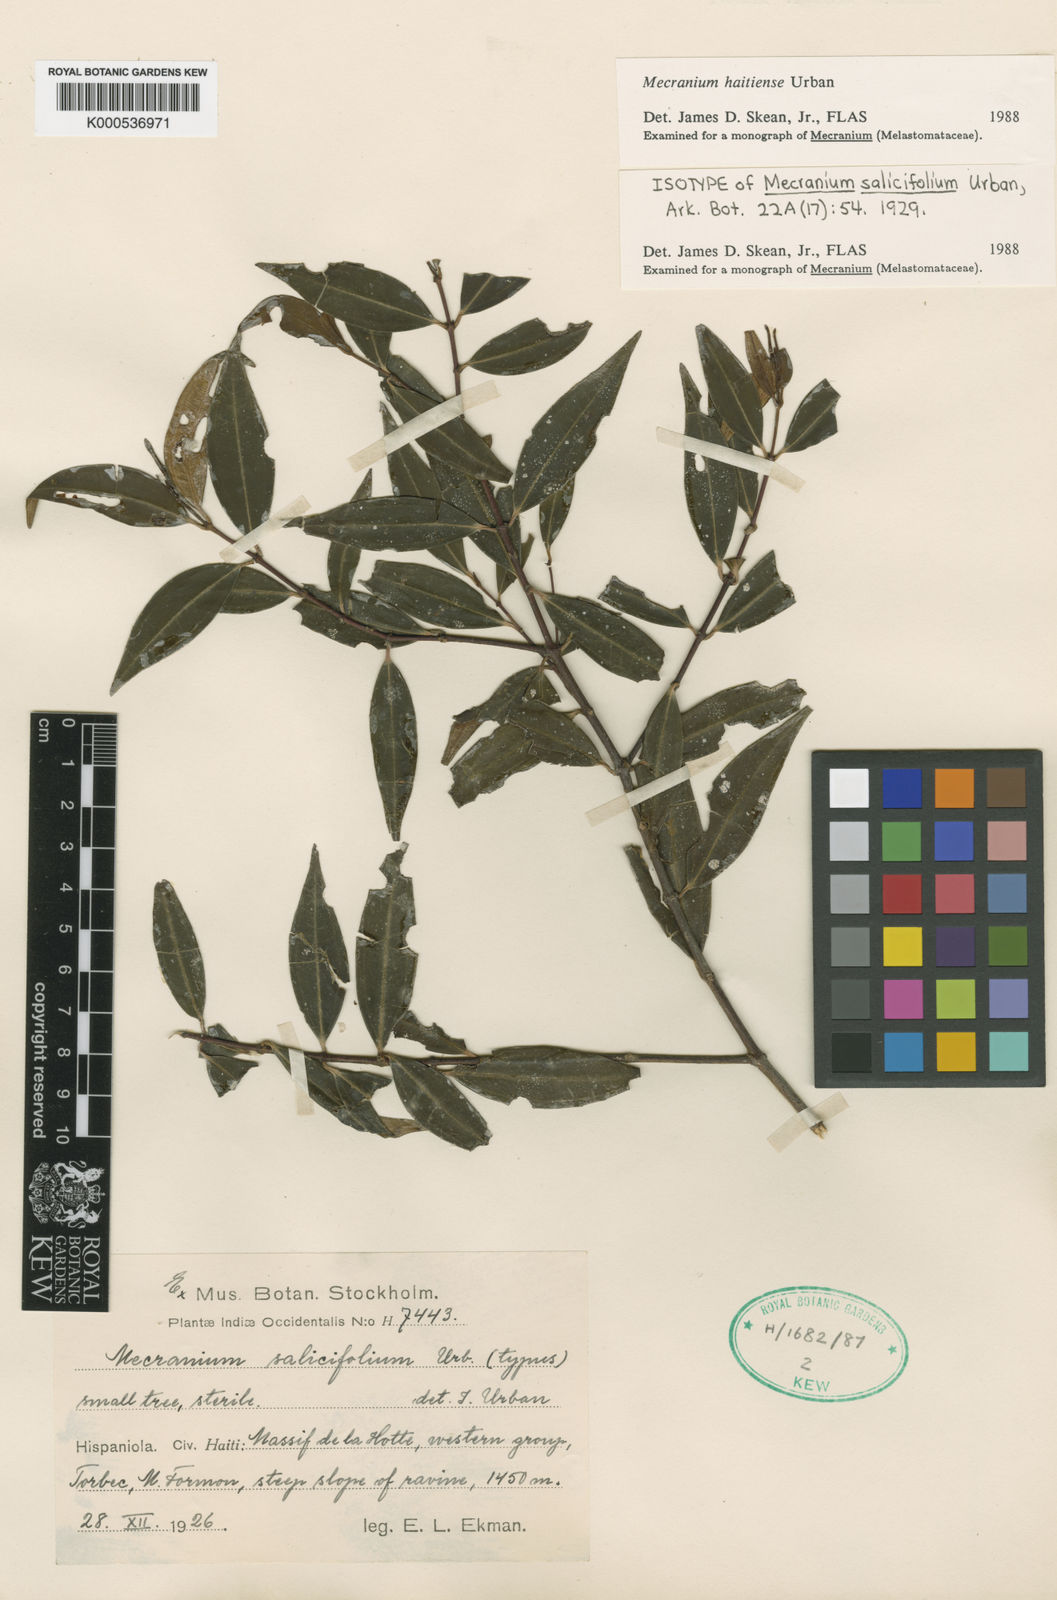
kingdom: Plantae
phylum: Tracheophyta
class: Magnoliopsida
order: Myrtales
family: Melastomataceae
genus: Miconia
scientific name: Miconia ayisyena
